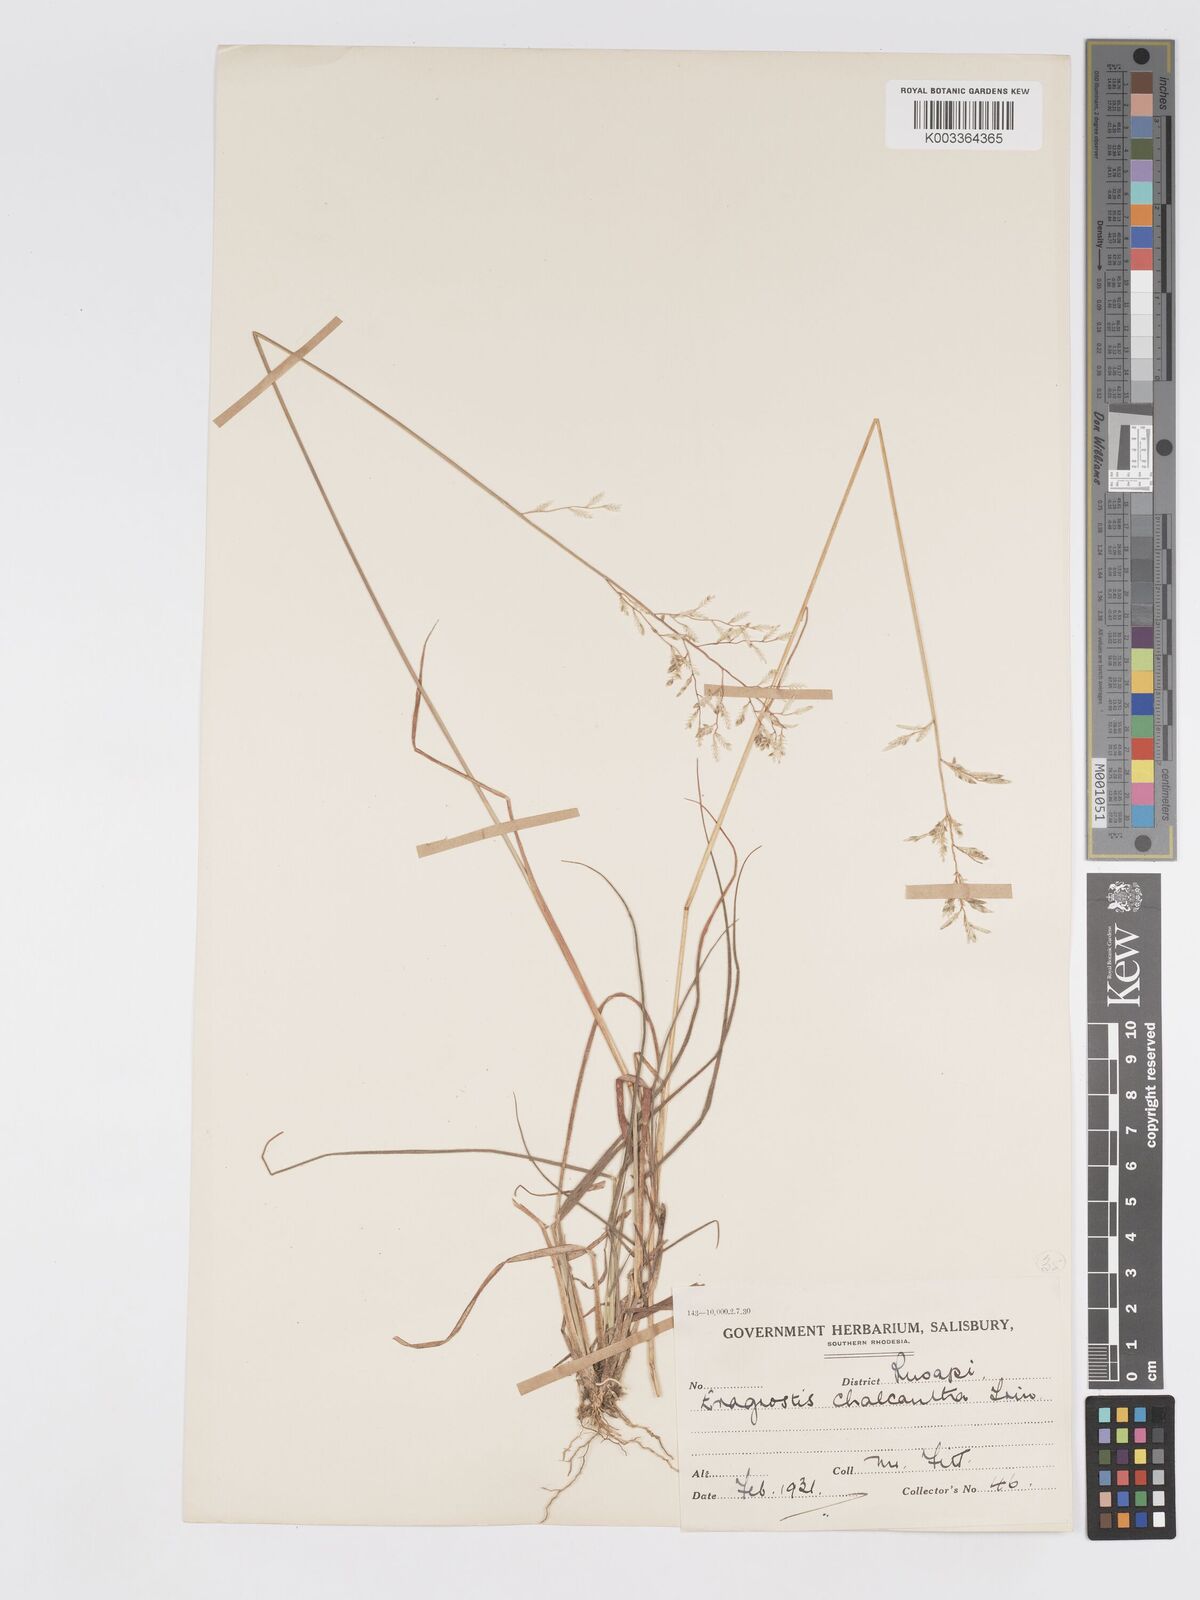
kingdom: Plantae
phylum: Tracheophyta
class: Liliopsida
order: Poales
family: Poaceae
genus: Eragrostis
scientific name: Eragrostis racemosa
